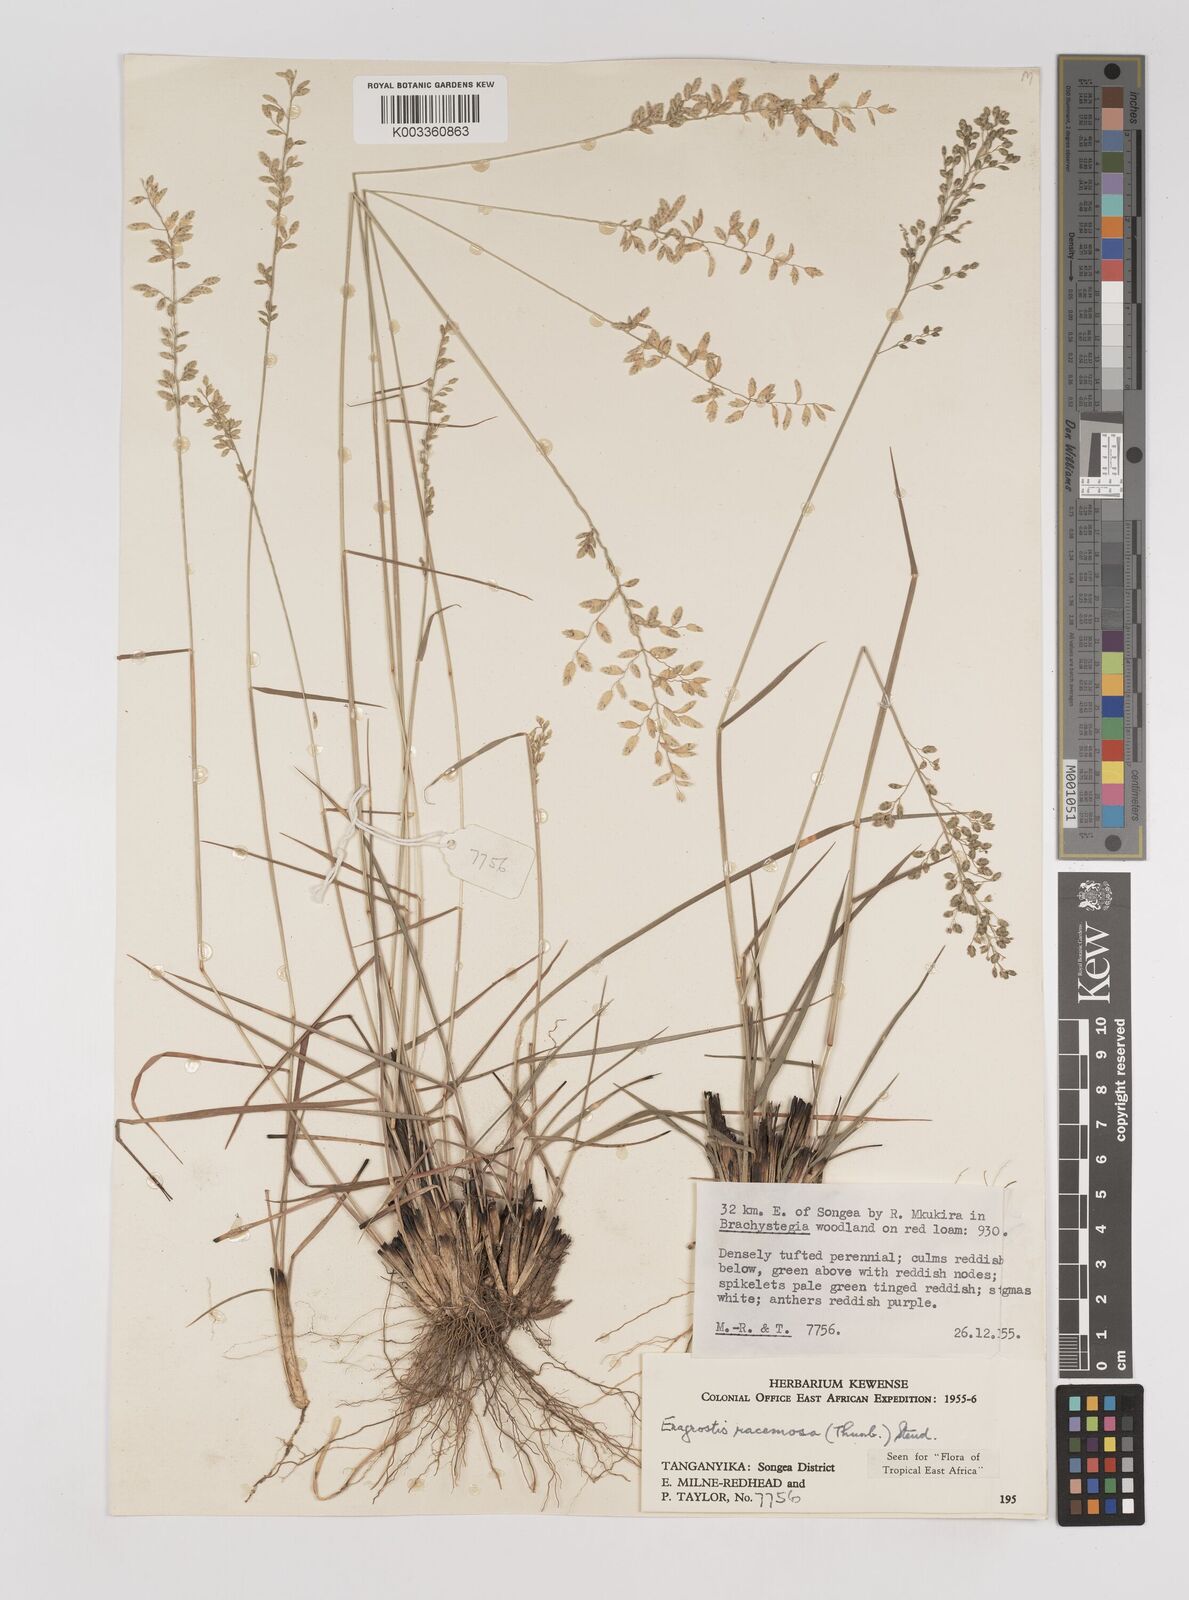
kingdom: Plantae
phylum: Tracheophyta
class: Liliopsida
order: Poales
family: Poaceae
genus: Eragrostis
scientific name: Eragrostis racemosa
